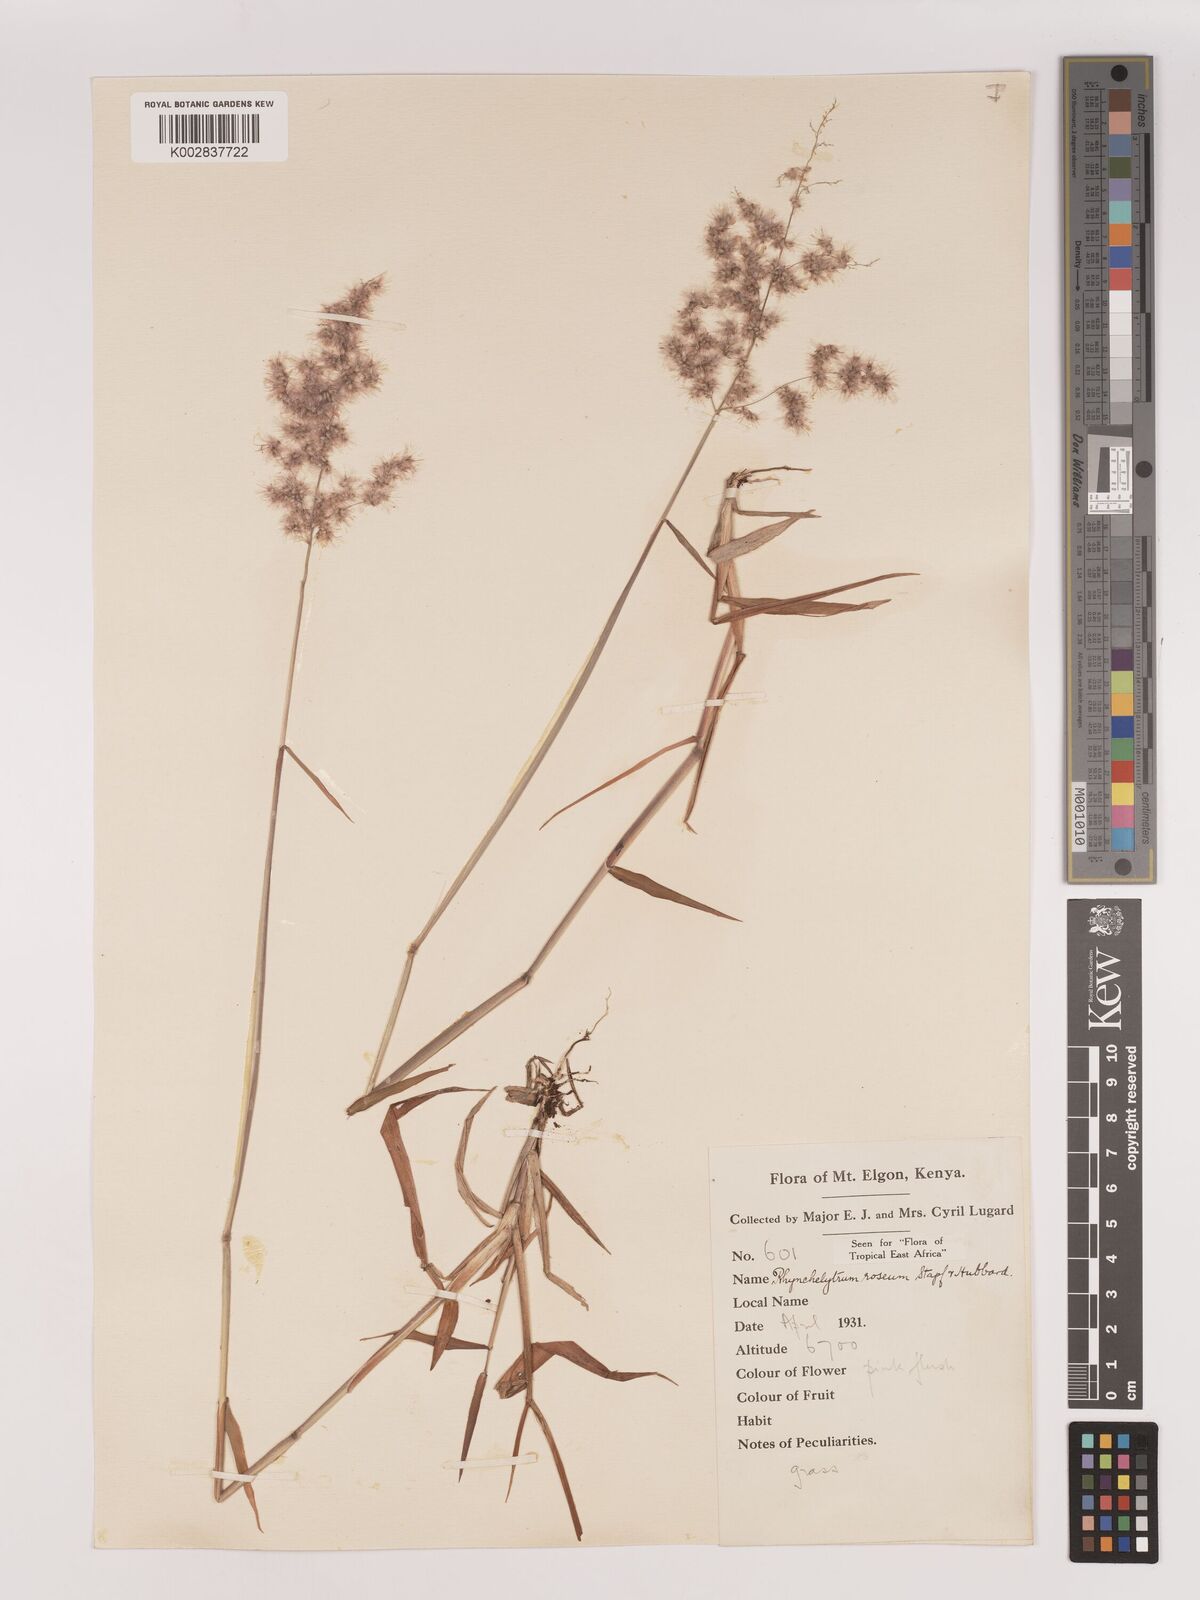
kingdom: Plantae
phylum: Tracheophyta
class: Liliopsida
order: Poales
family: Poaceae
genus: Melinis
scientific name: Melinis repens
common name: Rose natal grass
